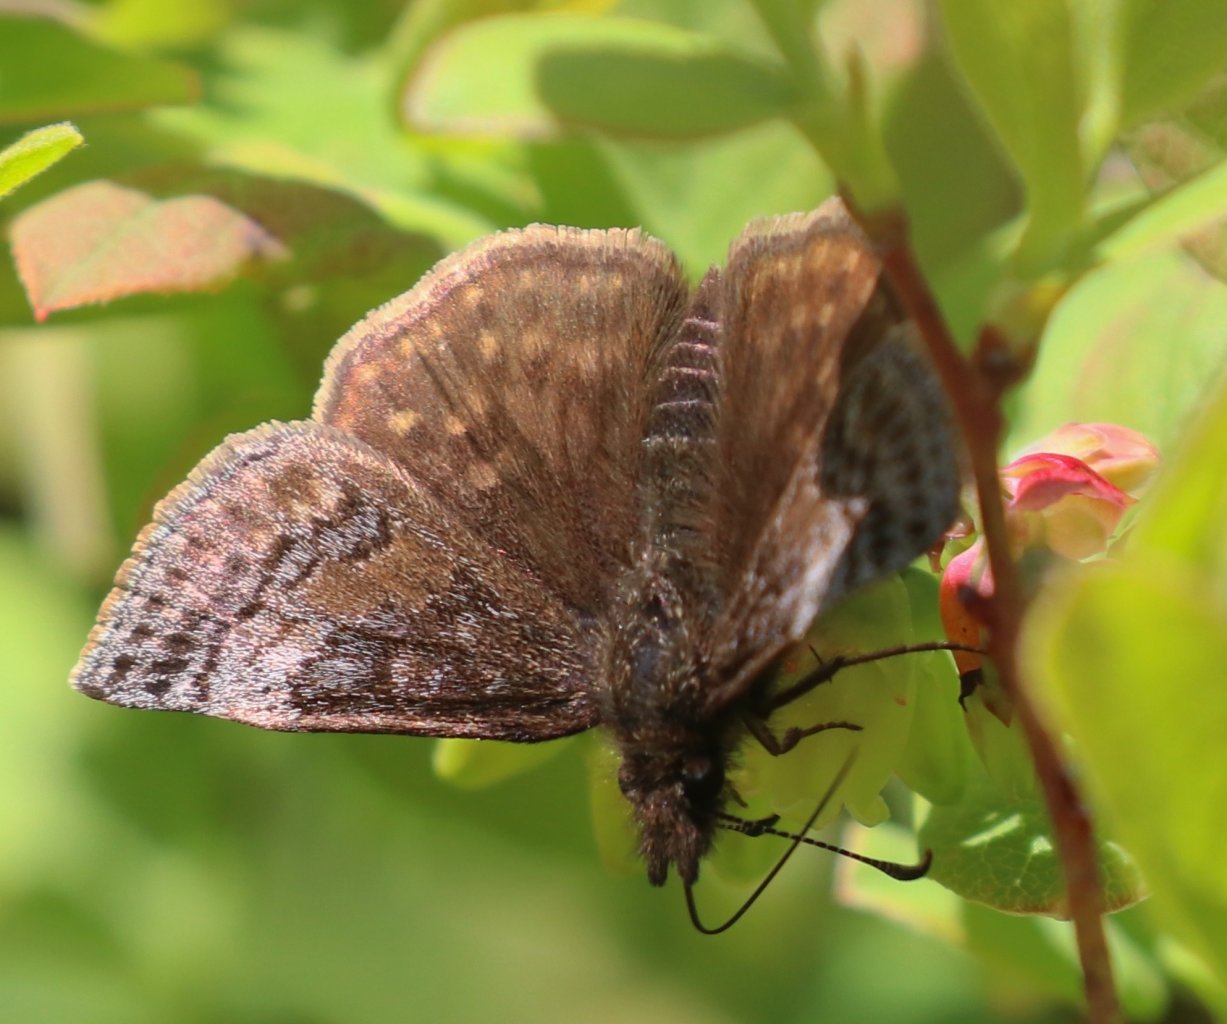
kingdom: Animalia
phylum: Arthropoda
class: Insecta
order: Lepidoptera
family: Hesperiidae
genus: Erynnis
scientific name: Erynnis icelus
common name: Dreamy Duskywing
